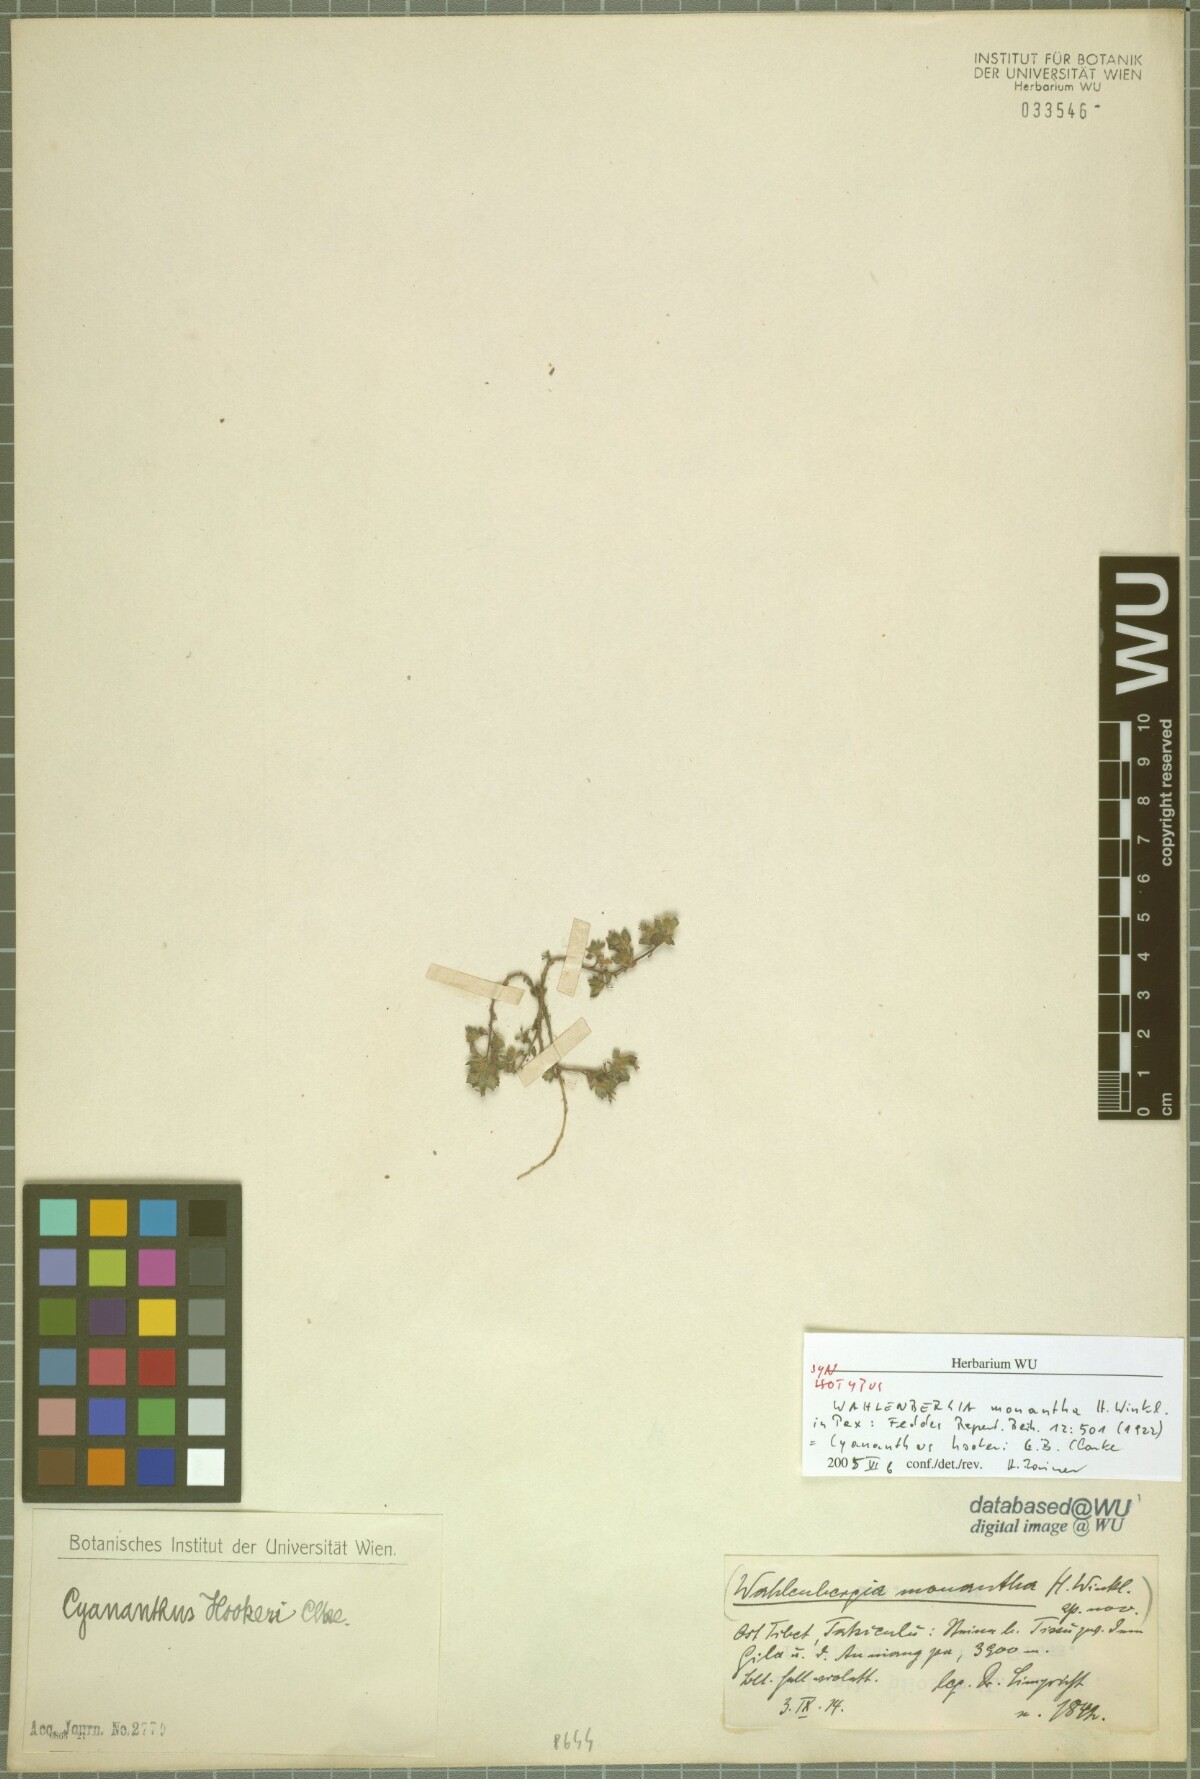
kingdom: Plantae
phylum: Tracheophyta
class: Magnoliopsida
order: Asterales
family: Campanulaceae
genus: Homocodon
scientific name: Homocodon brevipes
